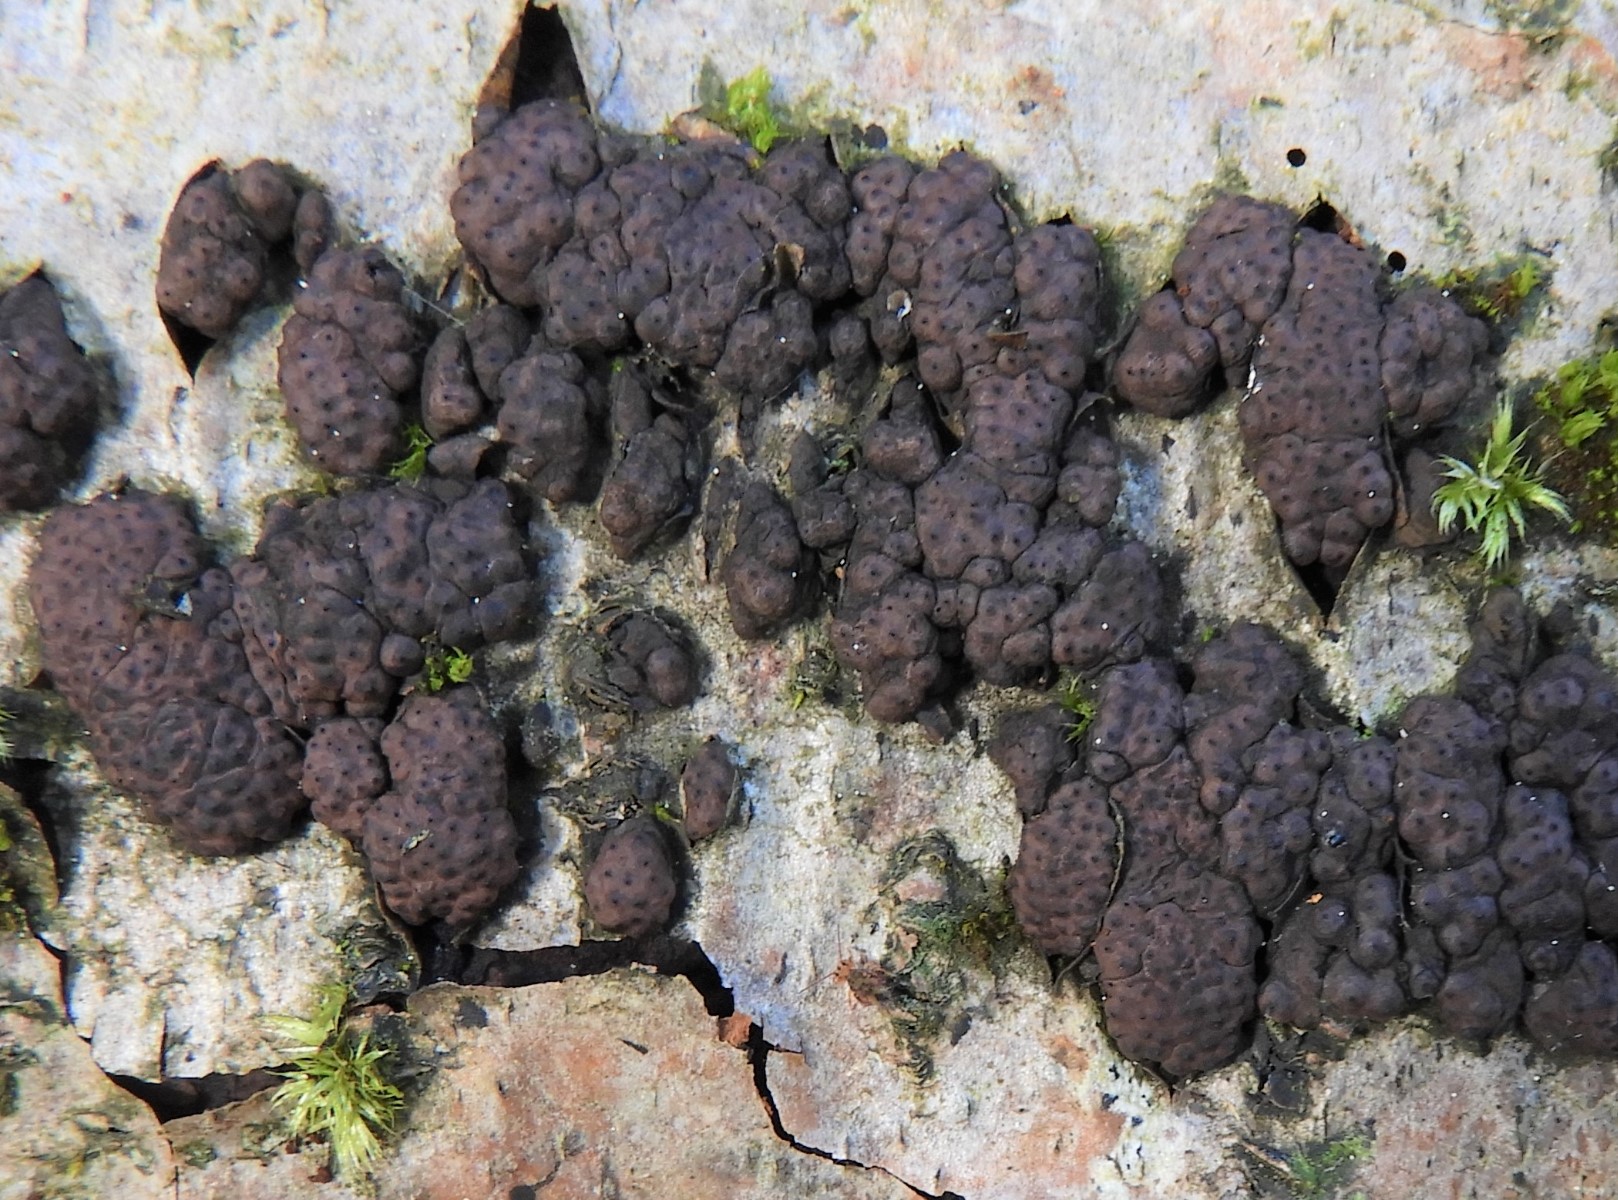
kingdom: Fungi
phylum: Ascomycota
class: Sordariomycetes
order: Xylariales
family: Hypoxylaceae
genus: Jackrogersella
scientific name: Jackrogersella multiformis
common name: foranderlig kulbær
